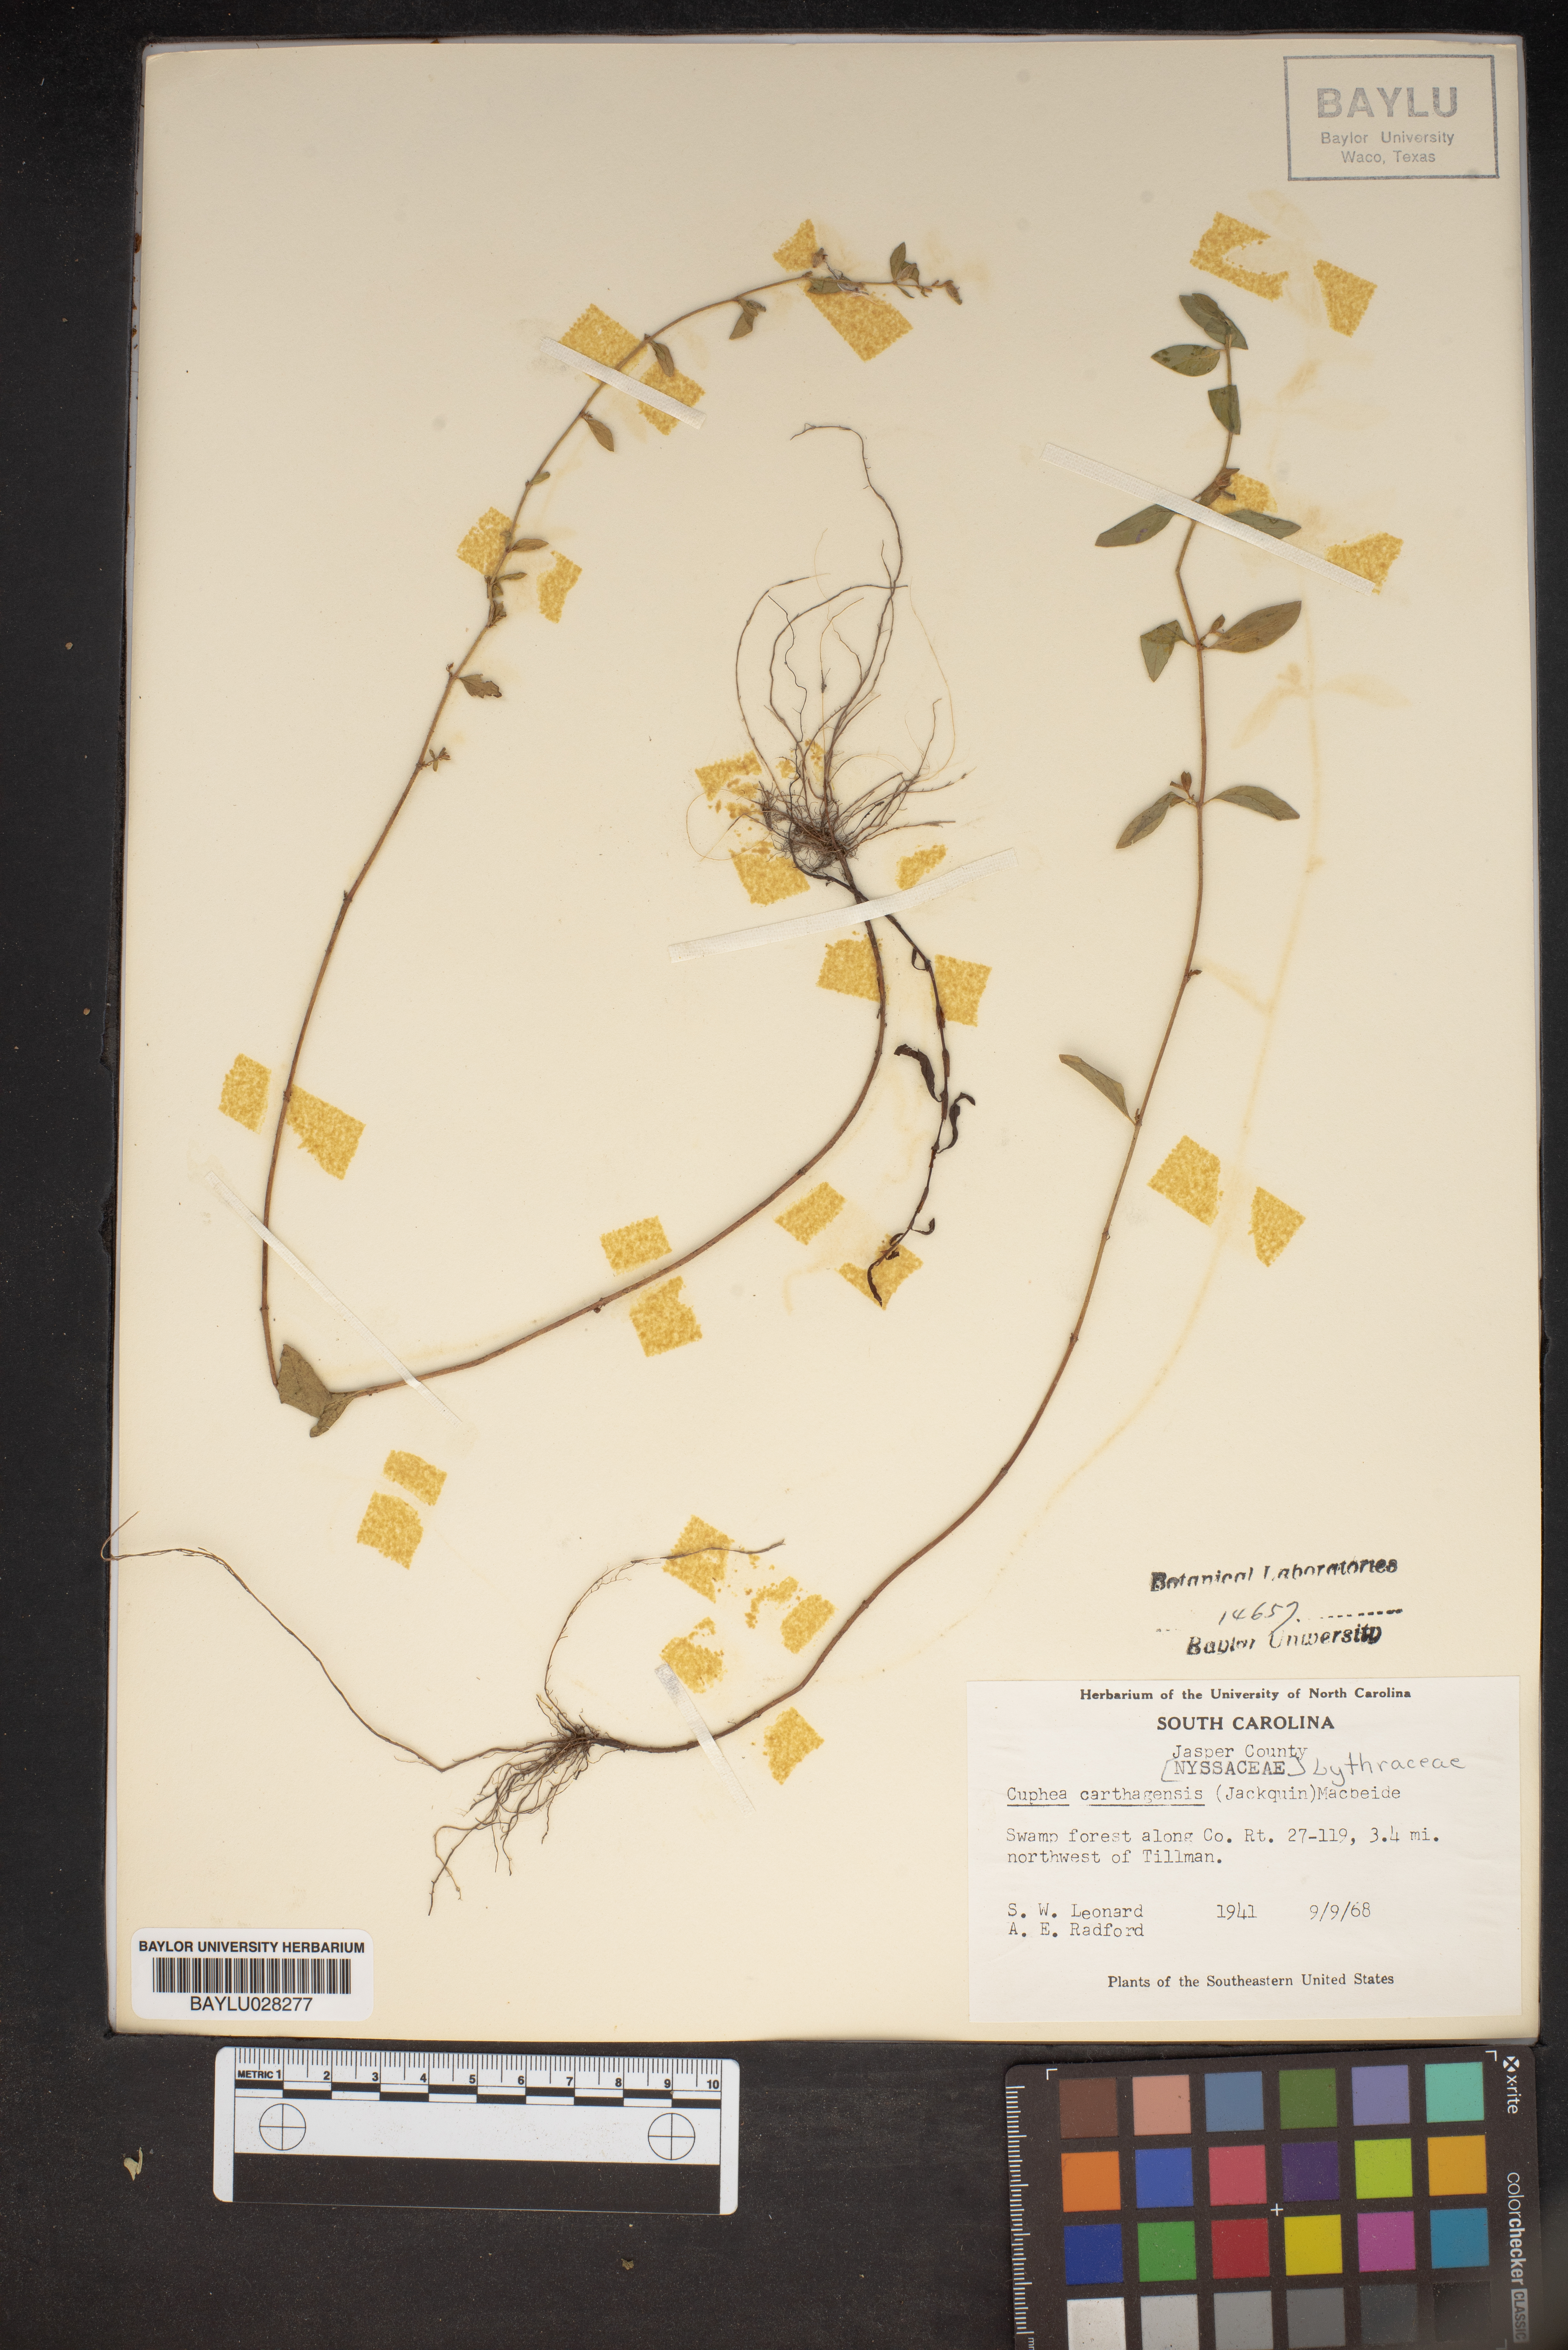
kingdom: Plantae
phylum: Tracheophyta
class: Magnoliopsida
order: Myrtales
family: Lythraceae
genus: Cuphea
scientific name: Cuphea carthagenensis
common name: Colombian waxweed
